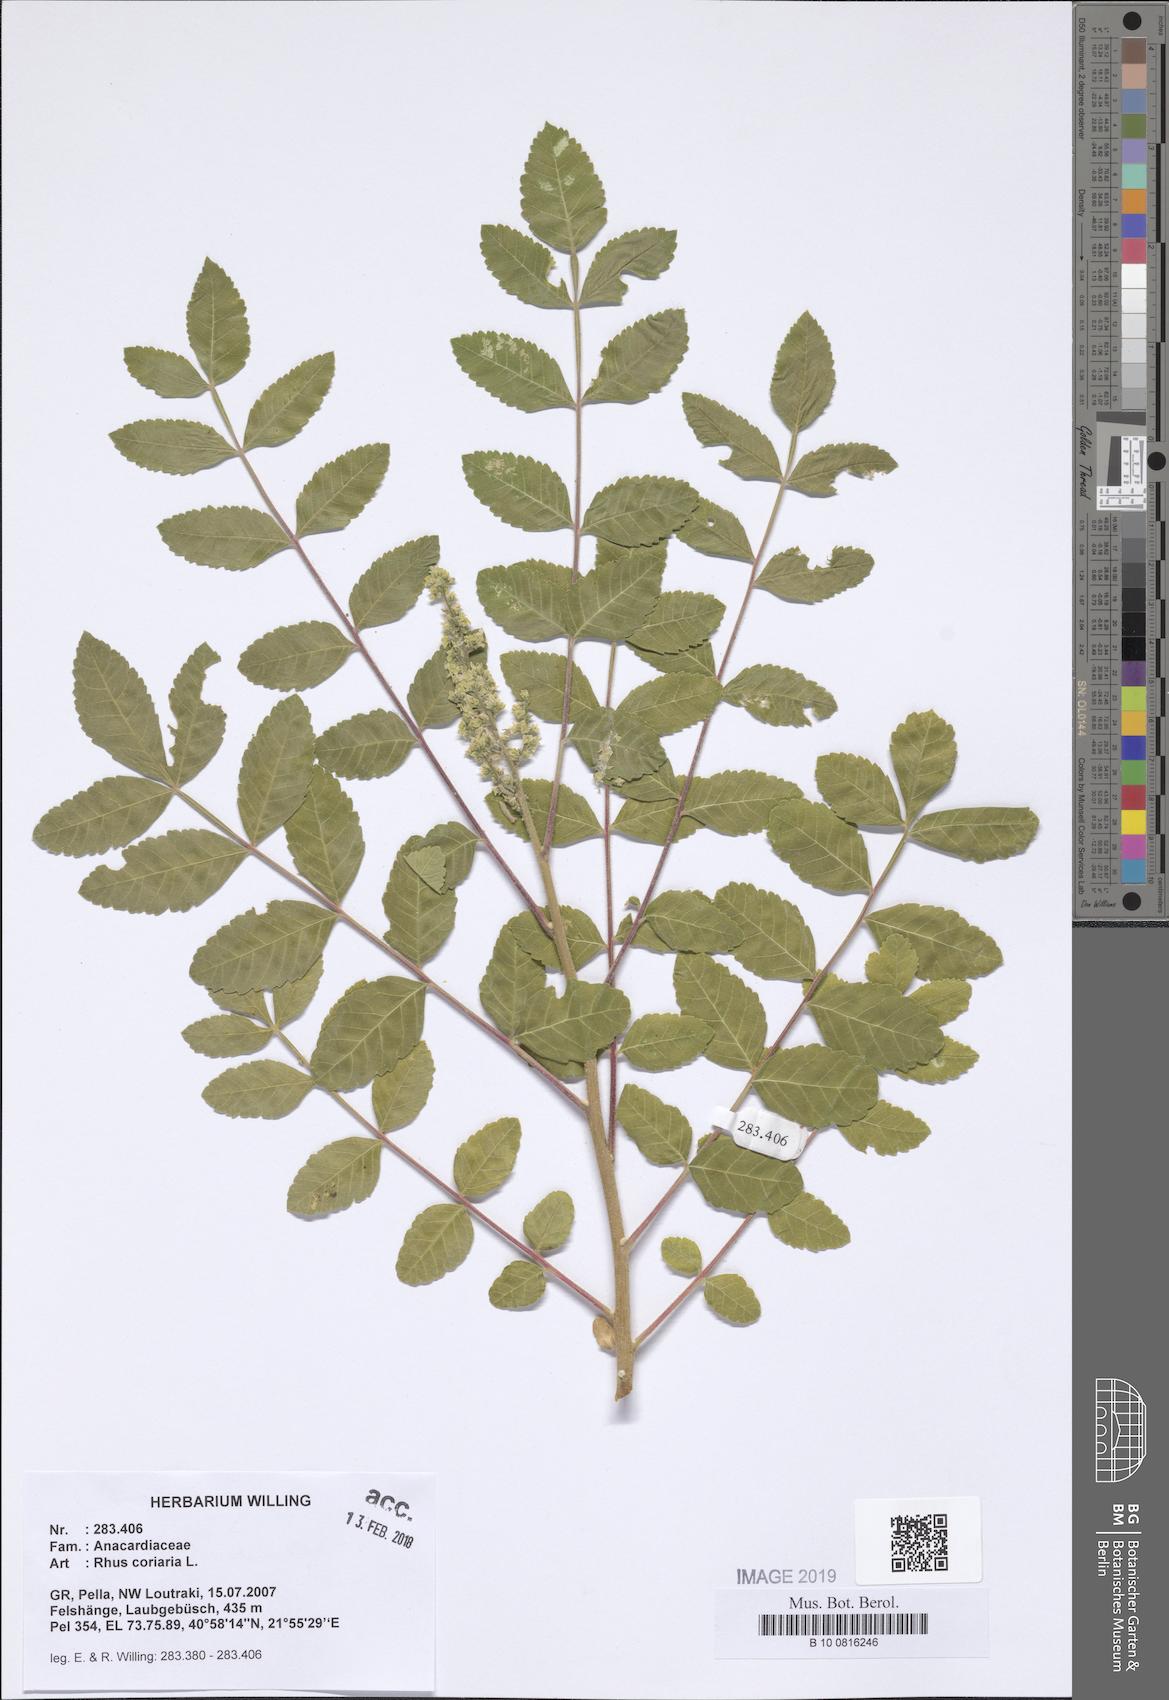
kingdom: Plantae
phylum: Tracheophyta
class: Magnoliopsida
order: Sapindales
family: Anacardiaceae
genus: Rhus
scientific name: Rhus coriaria
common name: Tanner's sumach
